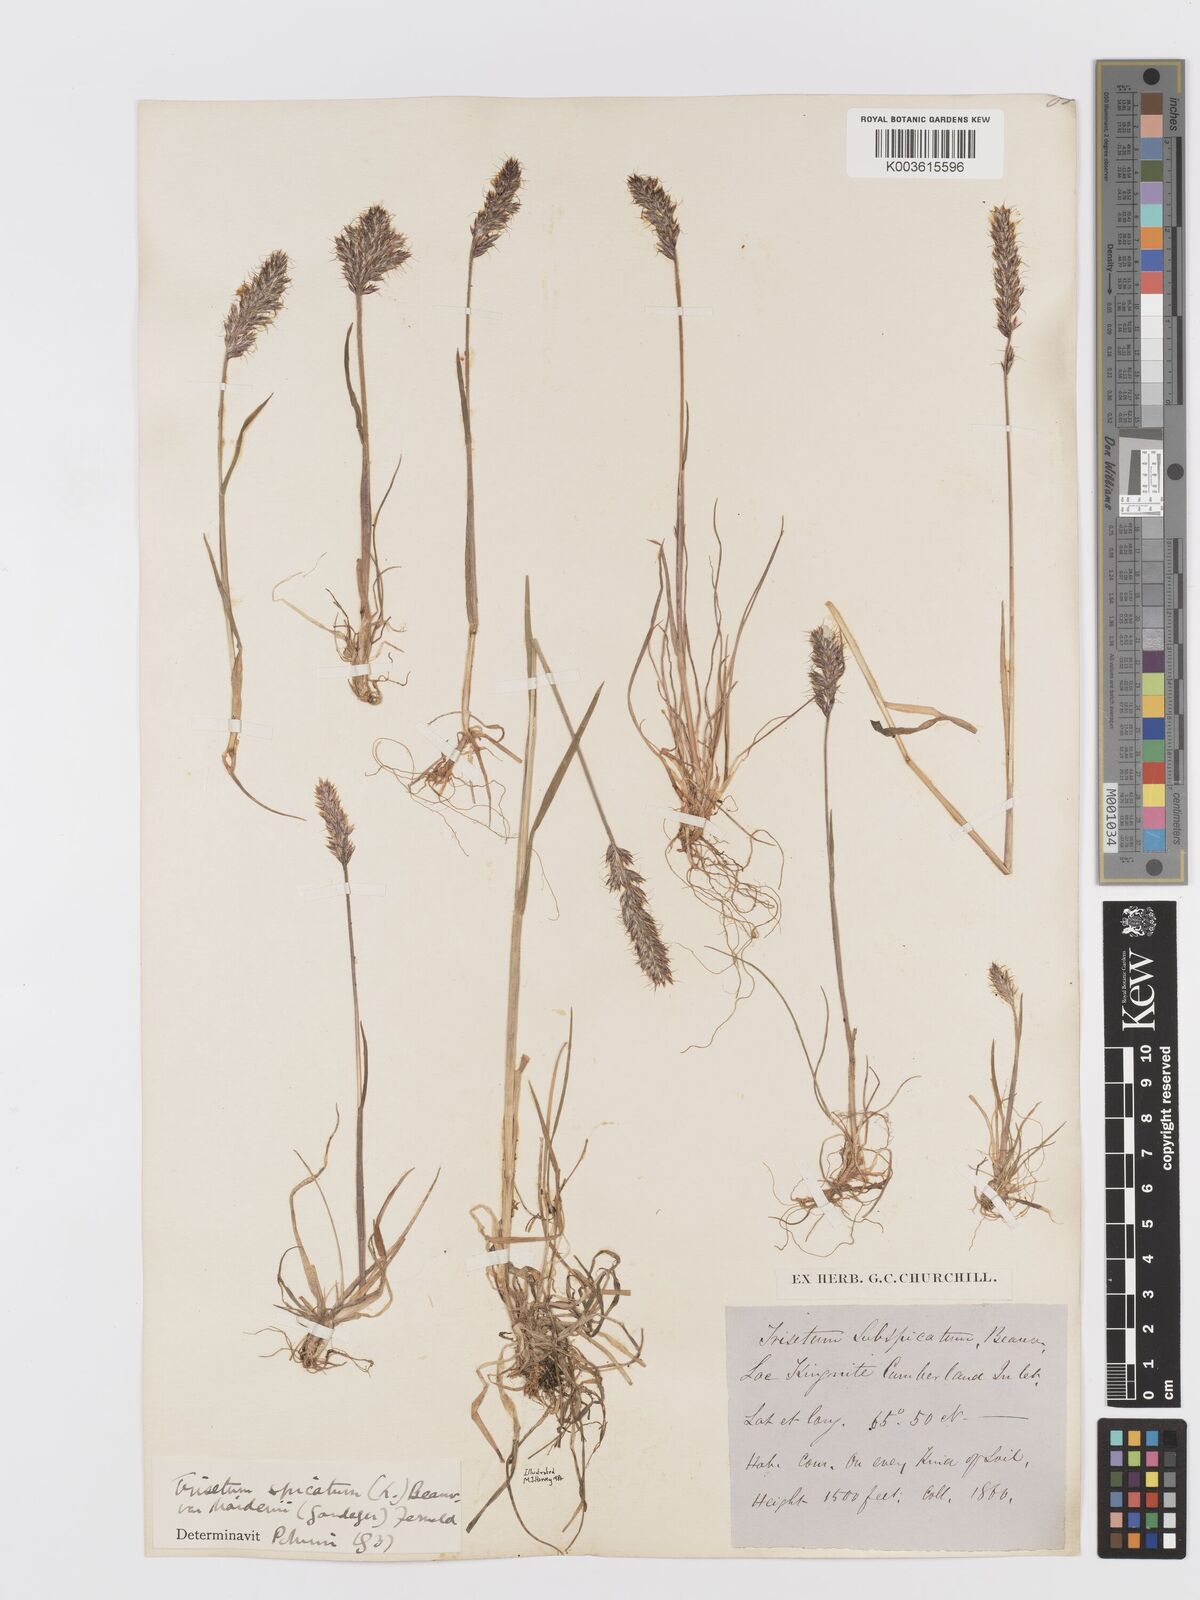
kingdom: Plantae
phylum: Tracheophyta
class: Liliopsida
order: Poales
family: Poaceae
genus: Koeleria
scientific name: Koeleria spicata
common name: Mountain trisetum
